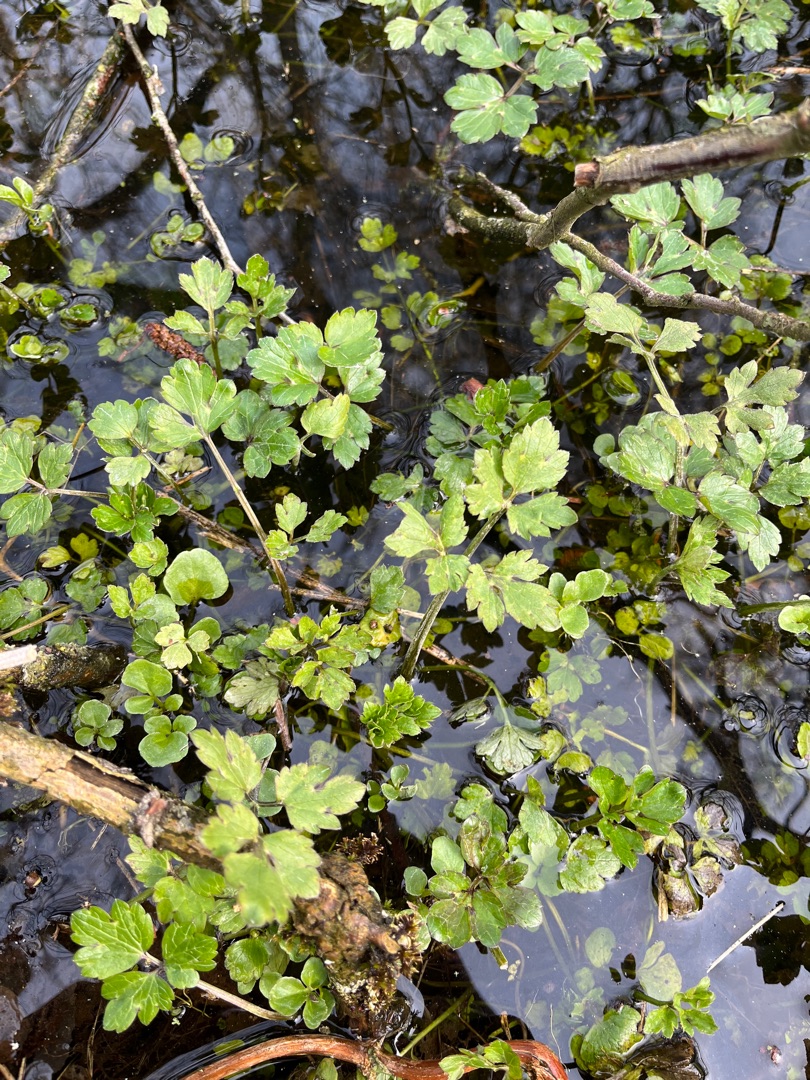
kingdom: Plantae
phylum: Tracheophyta
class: Magnoliopsida
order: Ranunculales
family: Ranunculaceae
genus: Ranunculus
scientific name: Ranunculus repens
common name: Lav ranunkel
